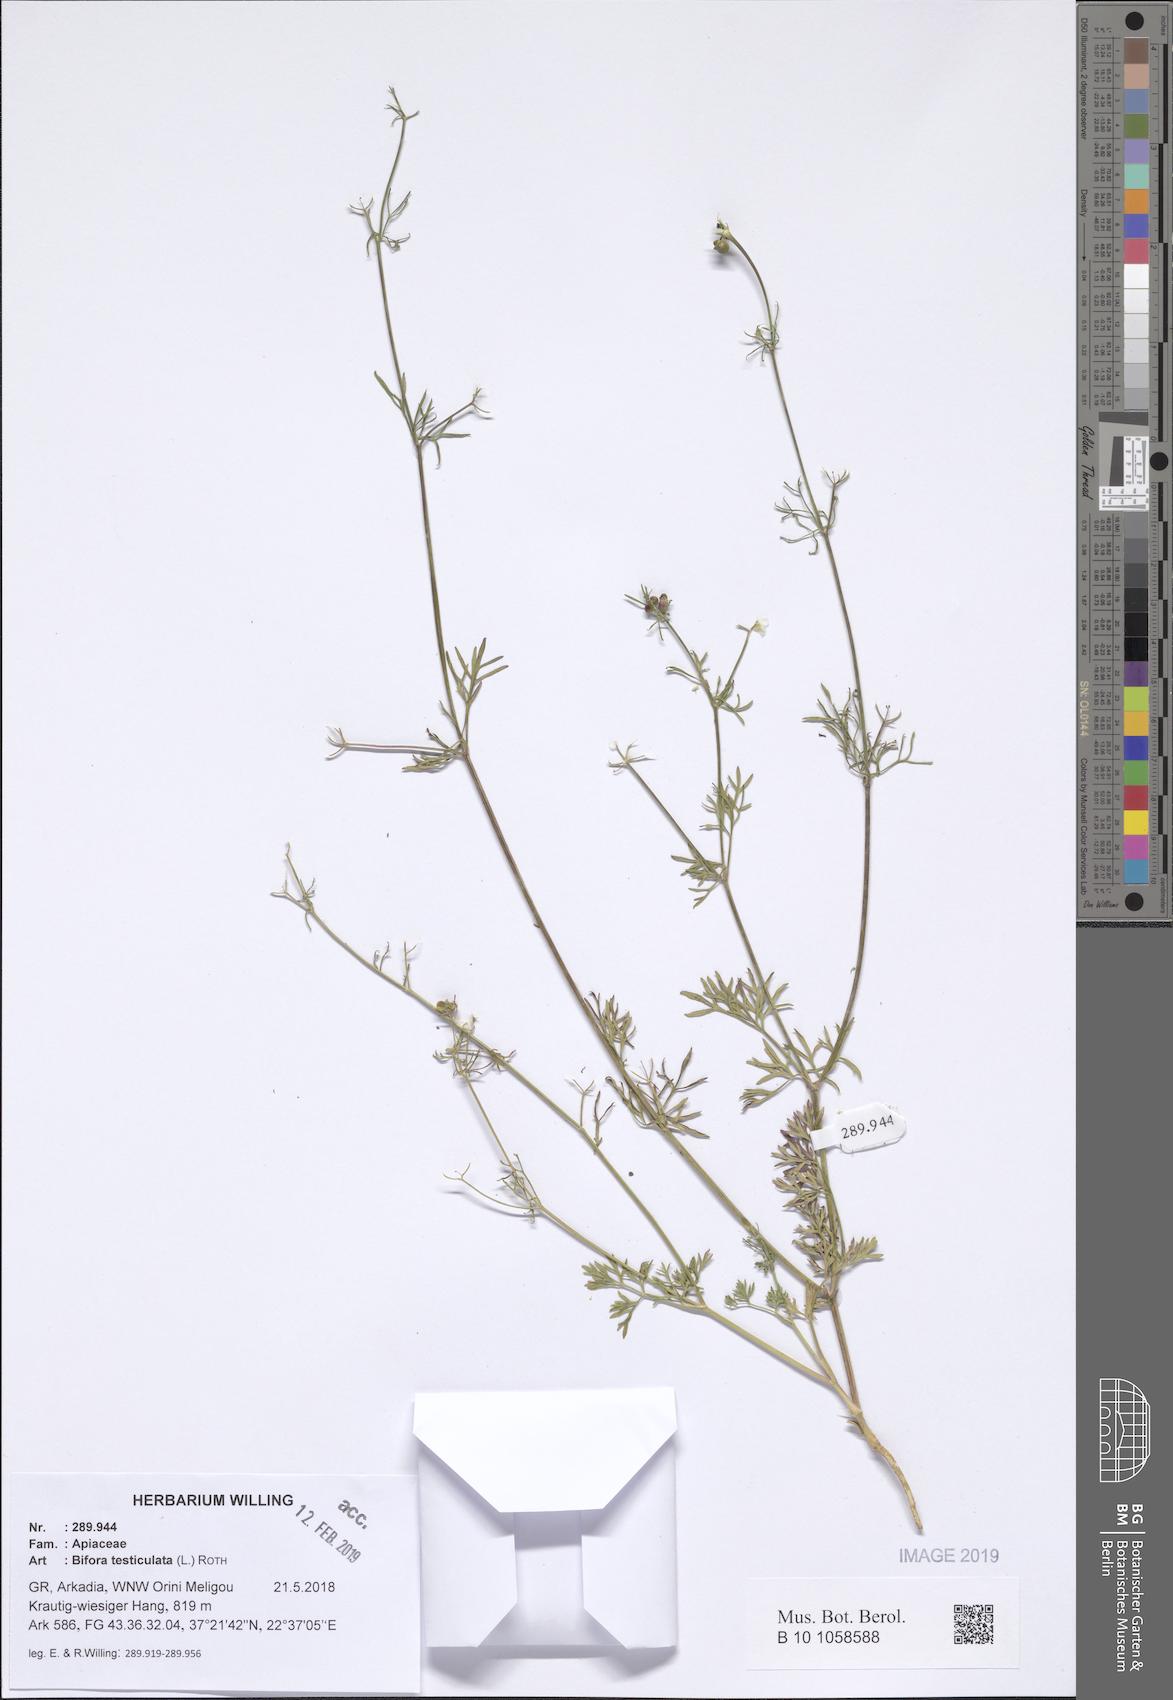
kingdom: Plantae
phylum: Tracheophyta
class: Magnoliopsida
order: Apiales
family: Apiaceae
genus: Bifora
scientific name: Bifora testiculata
